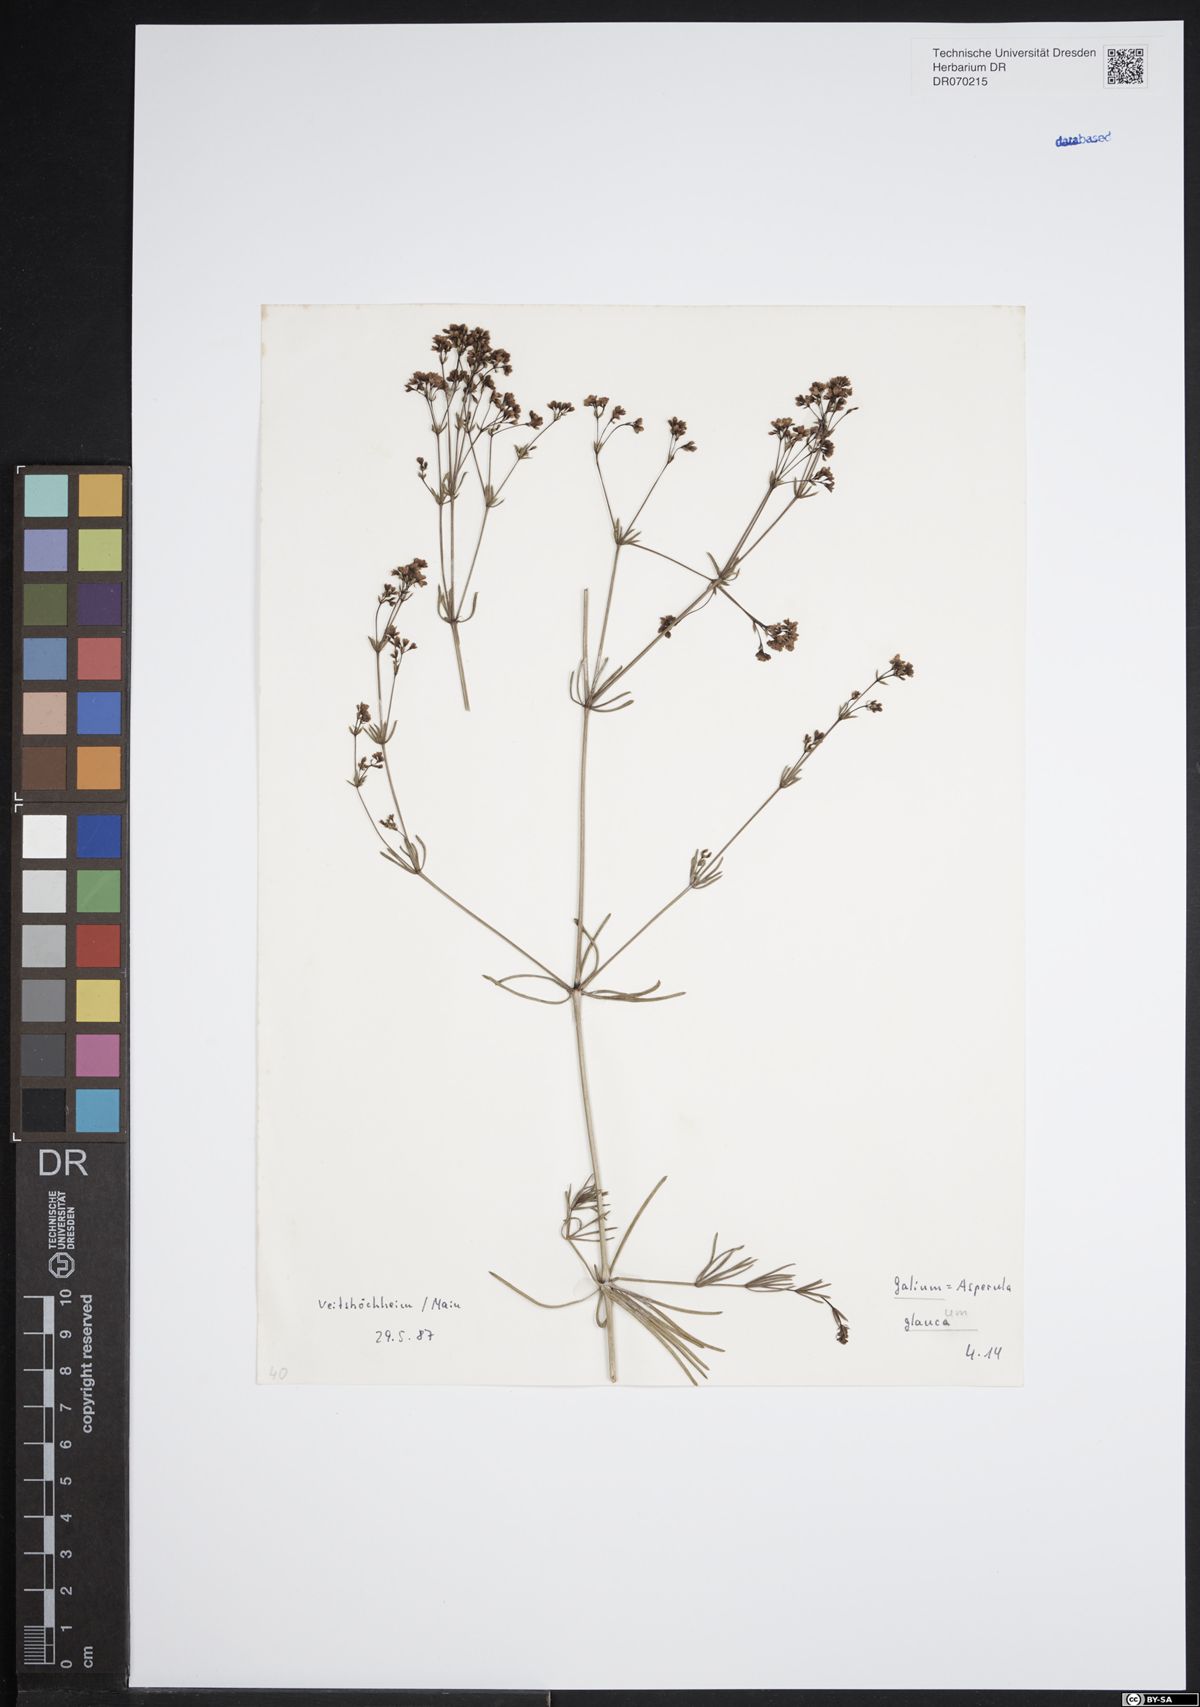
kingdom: Plantae
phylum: Tracheophyta
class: Magnoliopsida
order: Gentianales
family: Rubiaceae
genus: Galium
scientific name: Galium glaucum
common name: Waxy bedstraw
